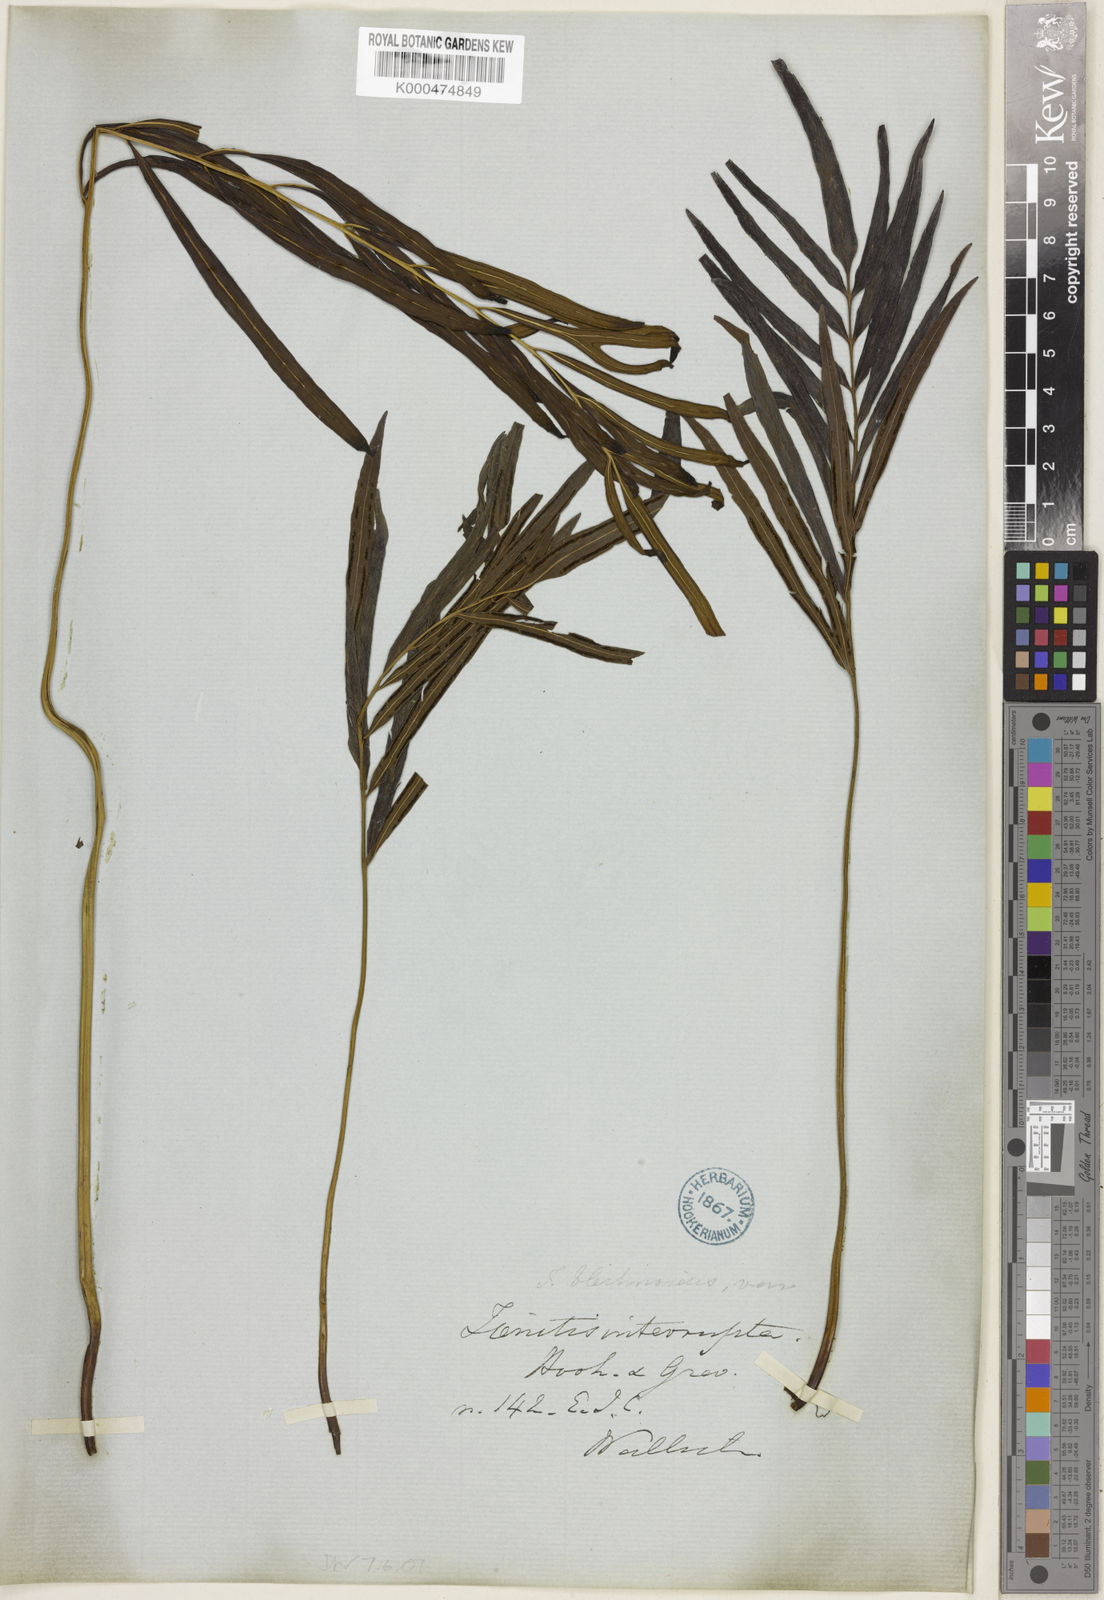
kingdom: Plantae
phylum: Tracheophyta
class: Polypodiopsida
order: Polypodiales
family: Pteridaceae
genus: Taenitis
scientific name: Taenitis blechnoides
